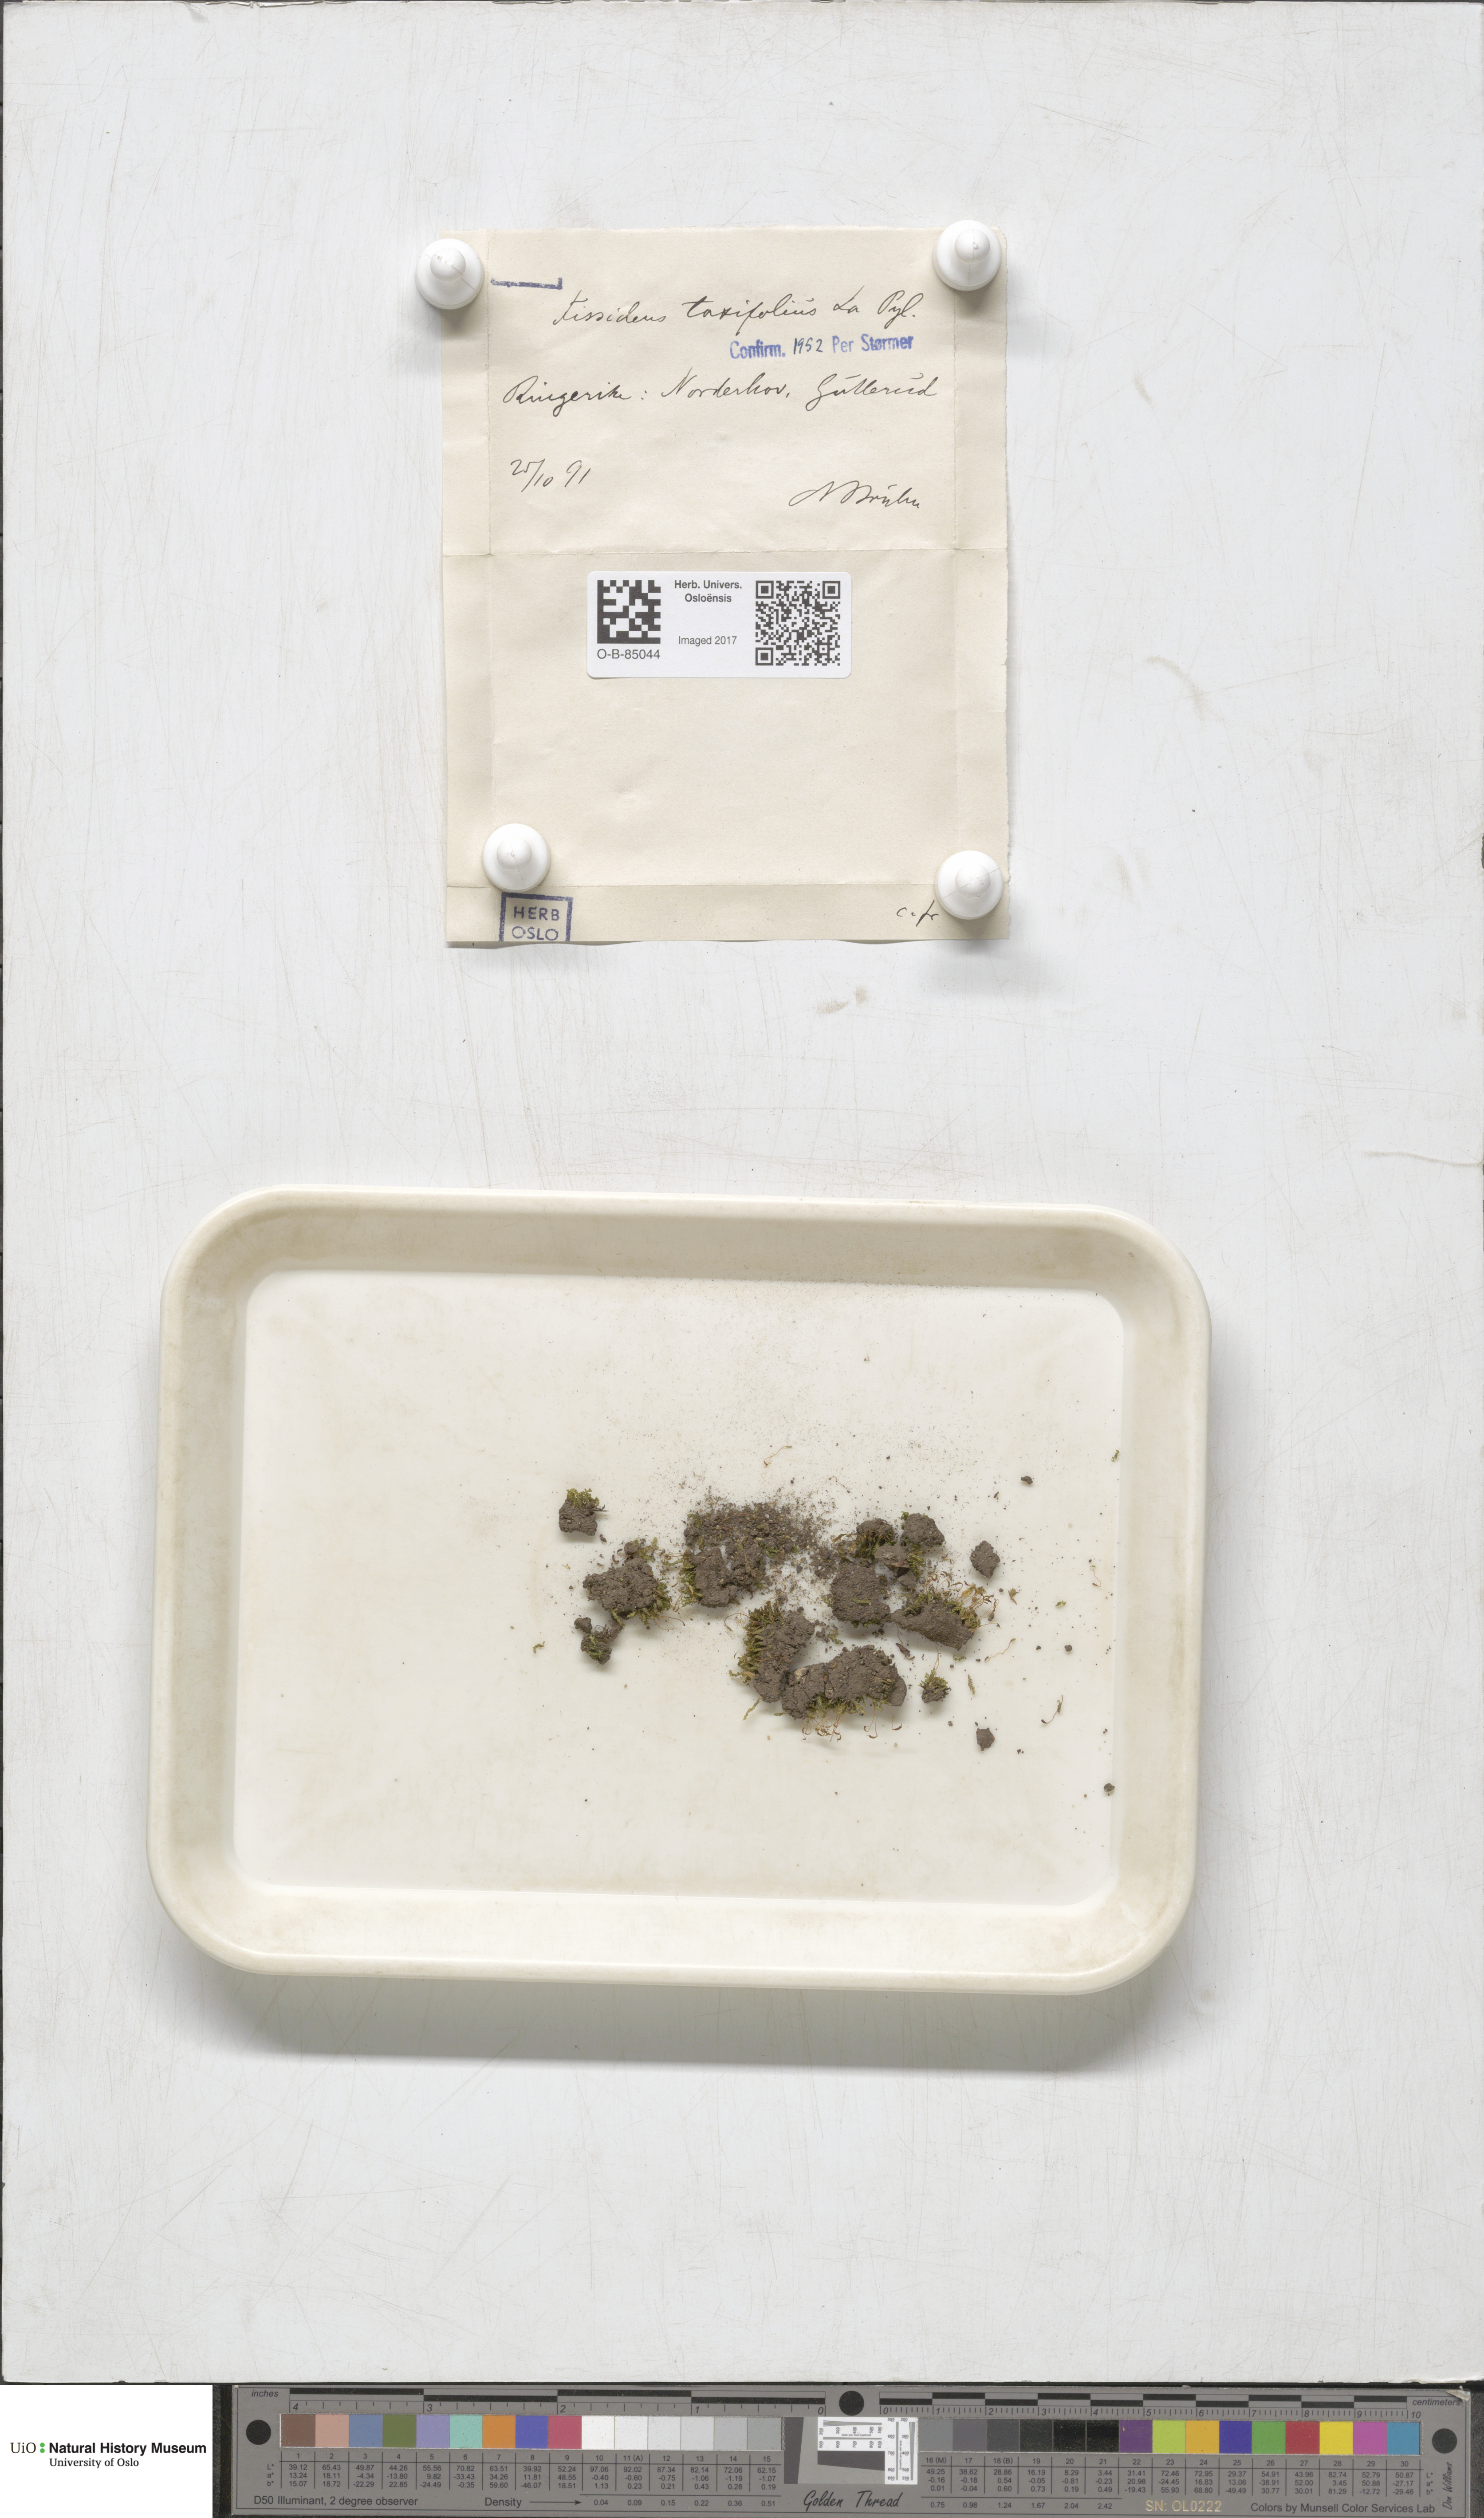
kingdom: Plantae
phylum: Bryophyta
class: Bryopsida
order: Dicranales
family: Fissidentaceae
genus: Fissidens
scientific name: Fissidens taxifolius
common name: Yew-leaved pocket moss
